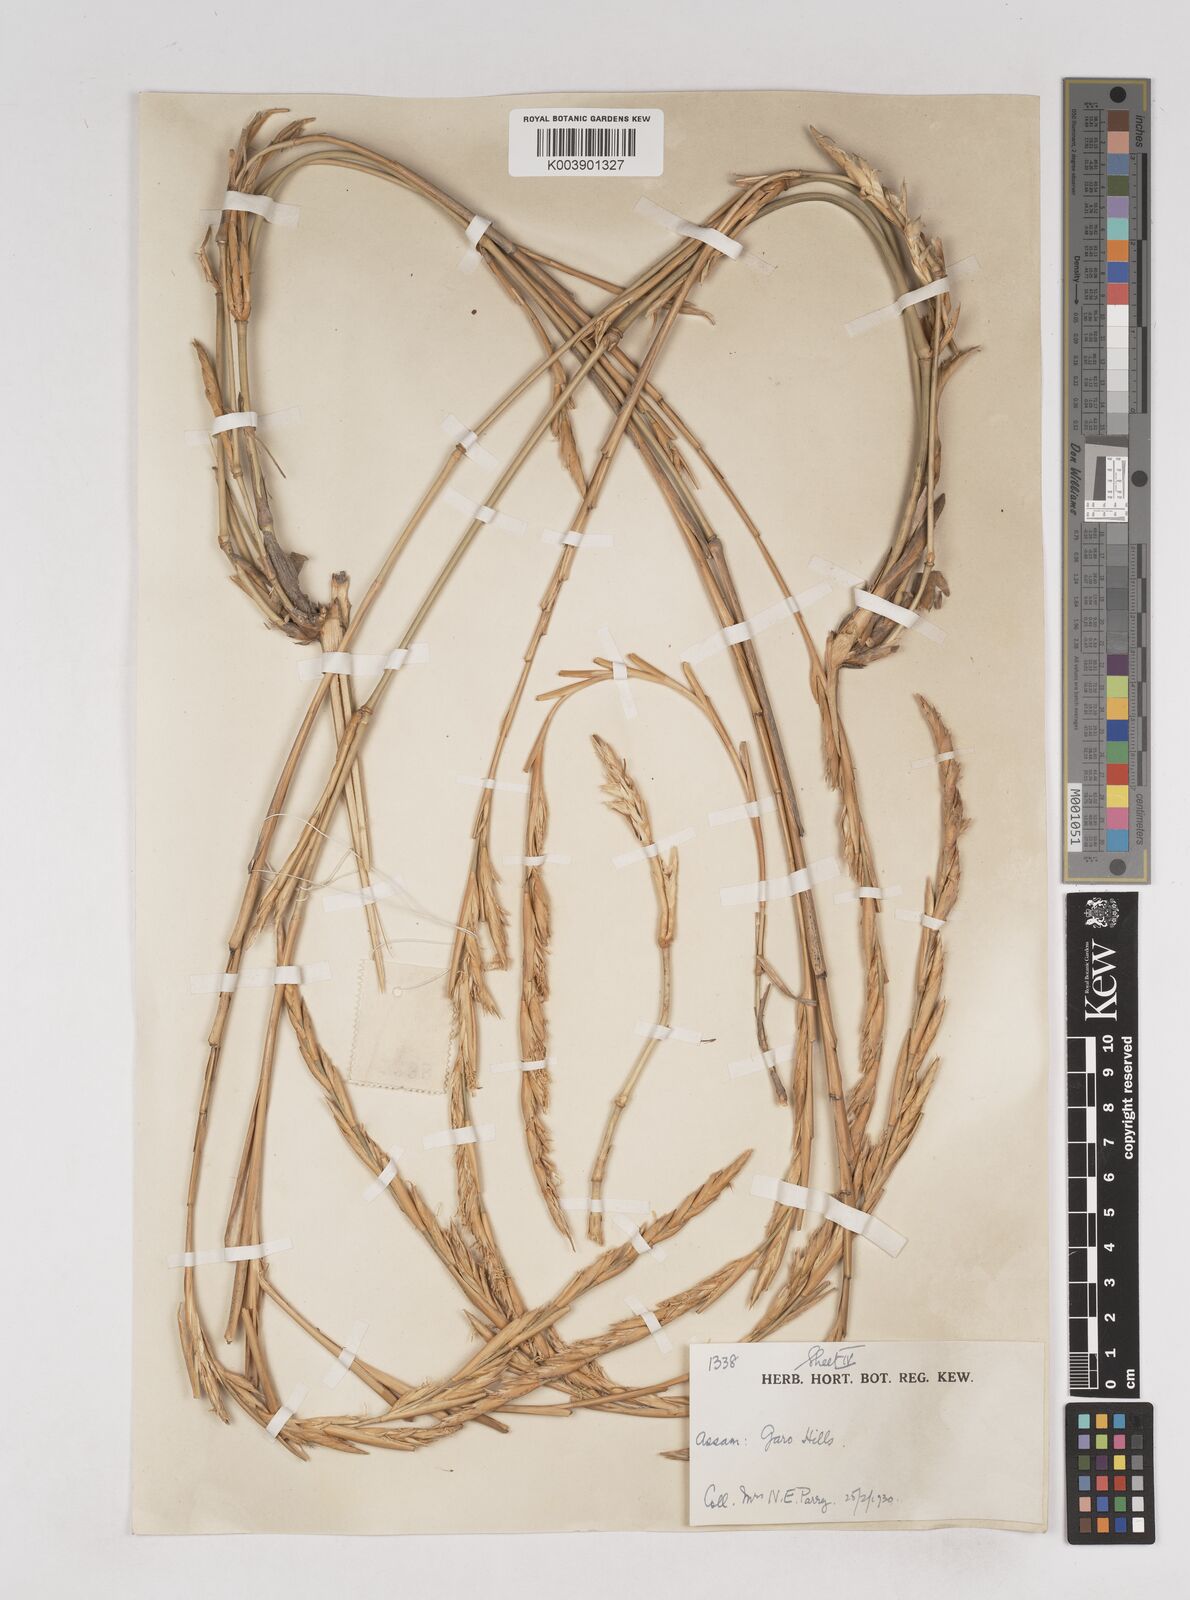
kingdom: Plantae
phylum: Tracheophyta
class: Liliopsida
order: Poales
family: Poaceae
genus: Melocanna
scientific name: Melocanna
